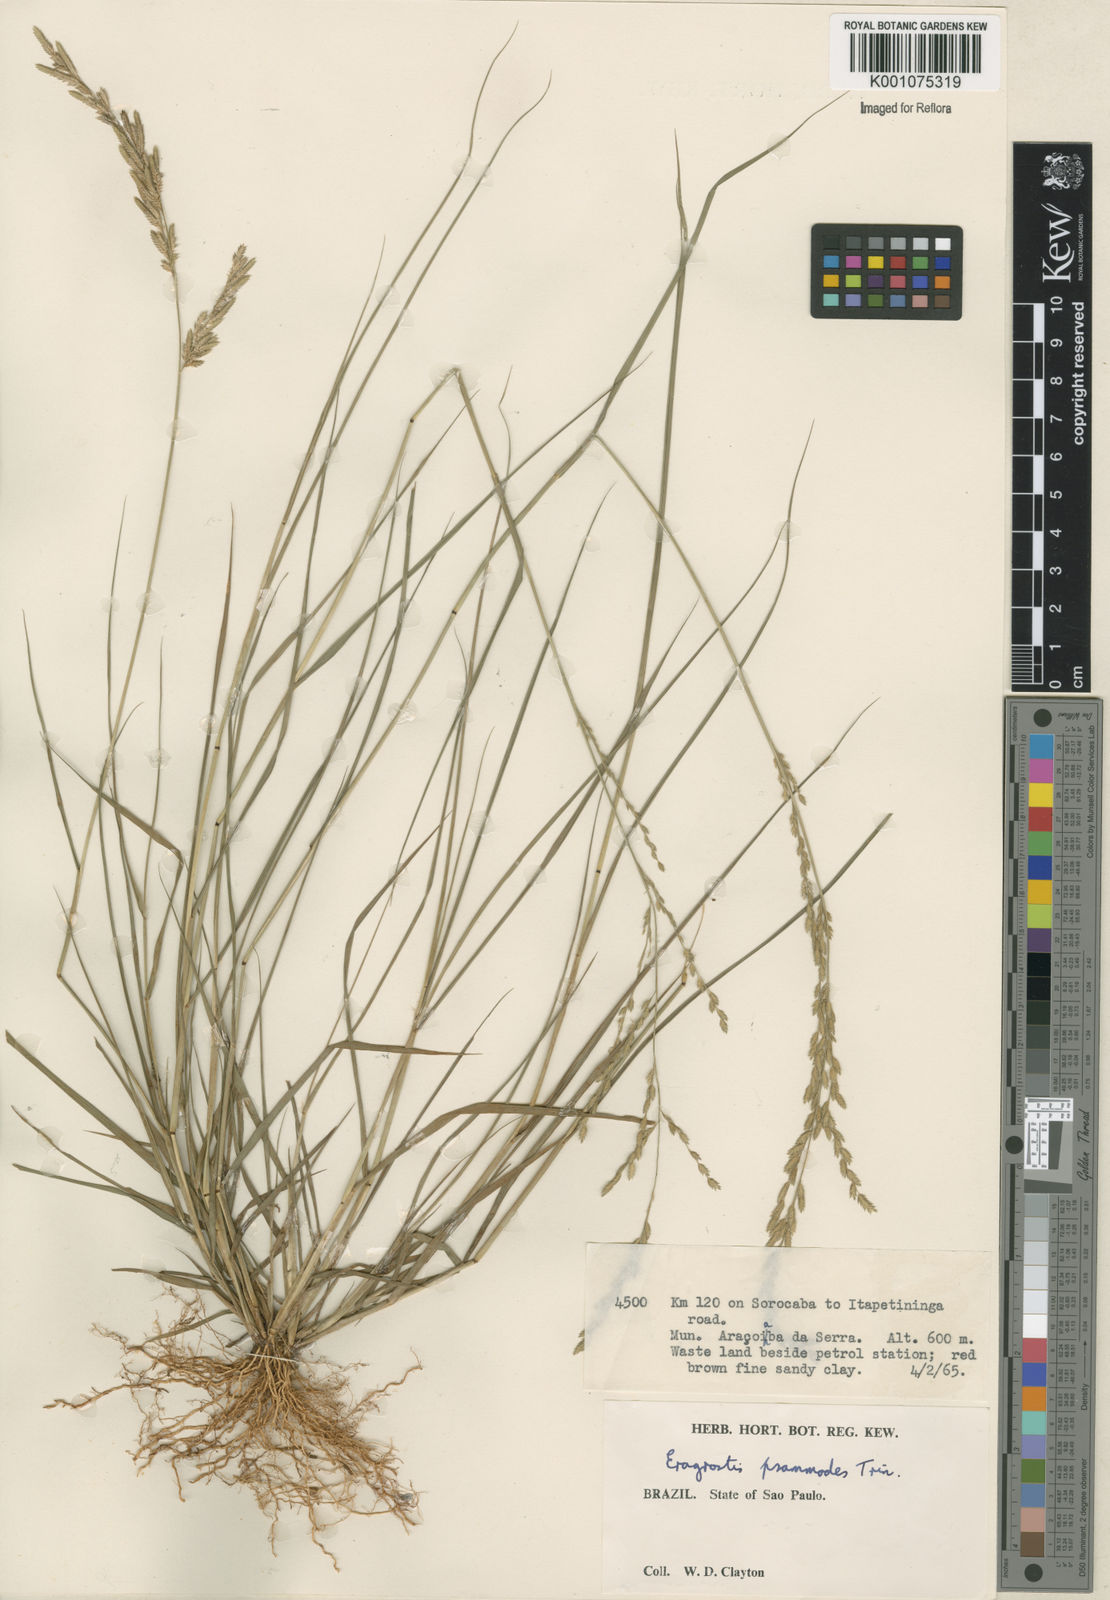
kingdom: Plantae
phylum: Tracheophyta
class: Liliopsida
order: Poales
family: Poaceae
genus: Eragrostis
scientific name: Eragrostis bahiensis
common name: Bahia lovegrass
